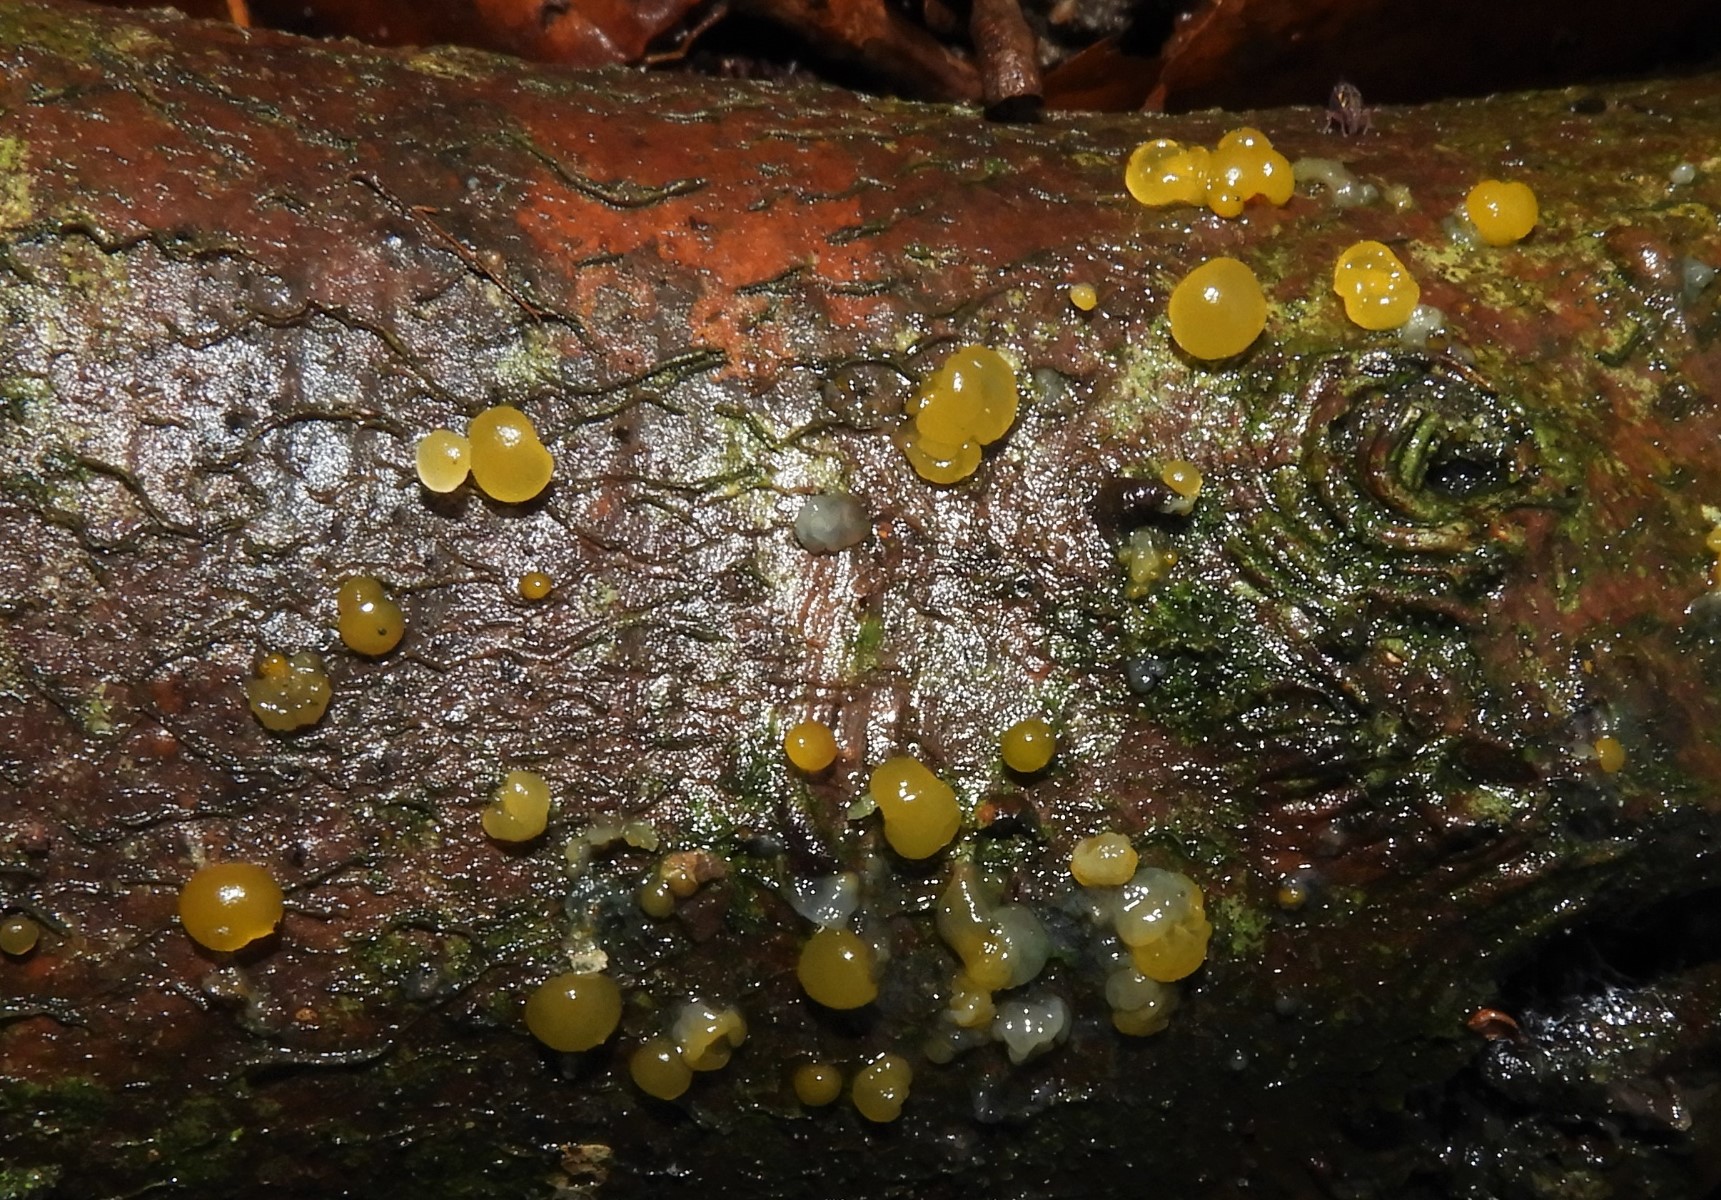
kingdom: Fungi
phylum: Basidiomycota
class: Dacrymycetes
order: Dacrymycetales
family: Dacrymycetaceae
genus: Dacrymyces
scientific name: Dacrymyces stillatus
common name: almindelig tåresvamp
